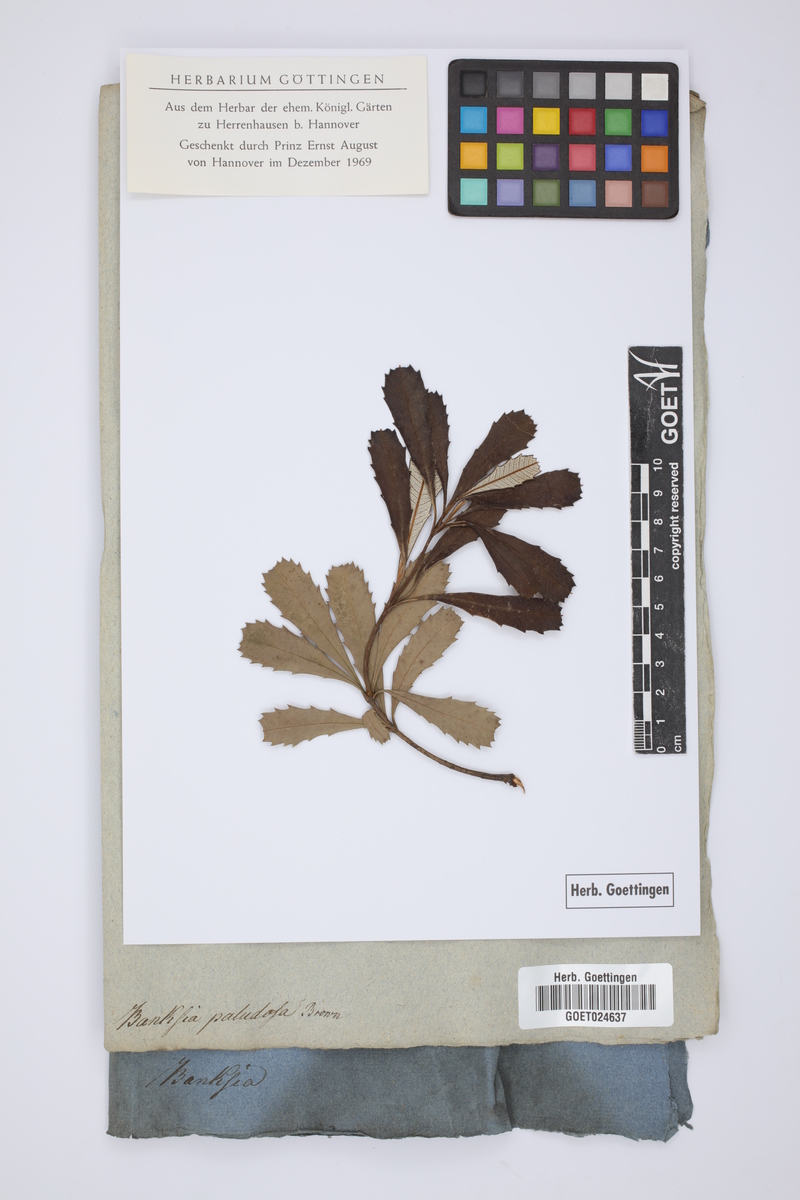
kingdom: Plantae
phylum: Tracheophyta
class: Magnoliopsida
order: Proteales
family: Proteaceae
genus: Banksia
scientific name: Banksia paludosa
